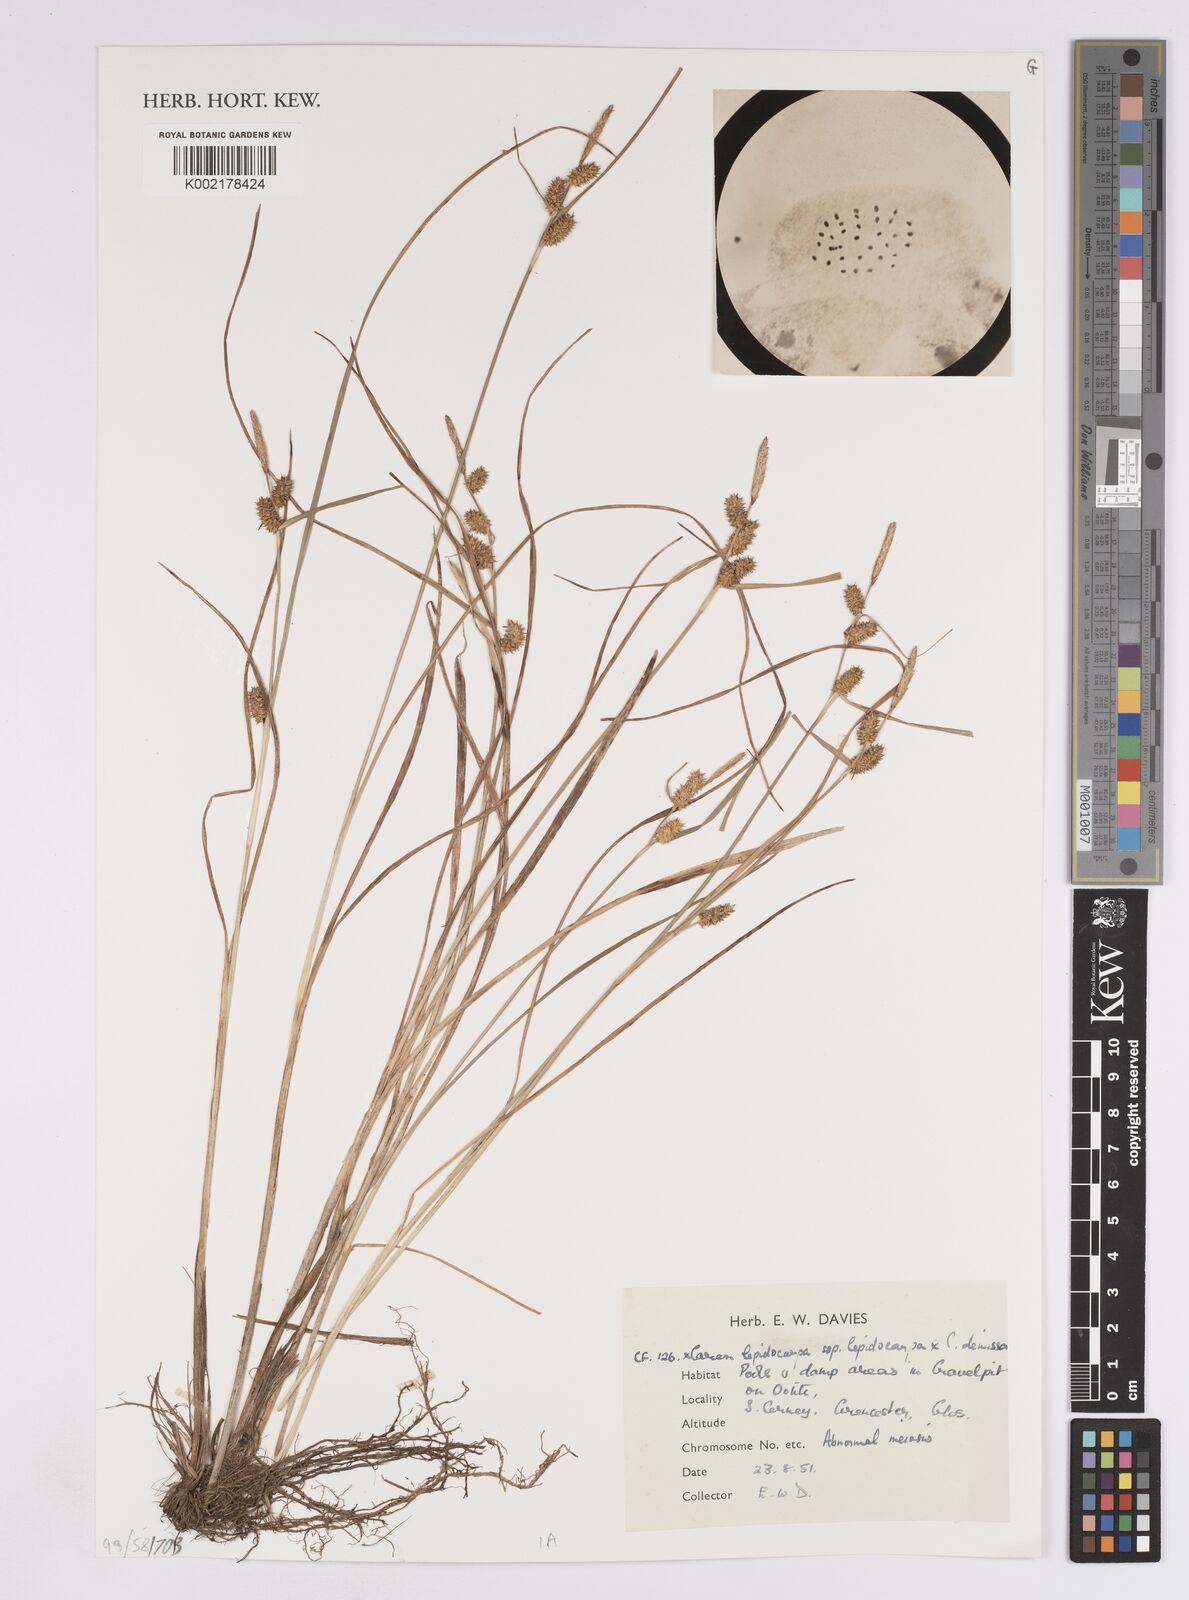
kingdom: Plantae
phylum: Tracheophyta
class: Liliopsida
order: Poales
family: Cyperaceae
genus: Carex
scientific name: Carex lepidocarpa
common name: Long-stalked yellow-sedge
